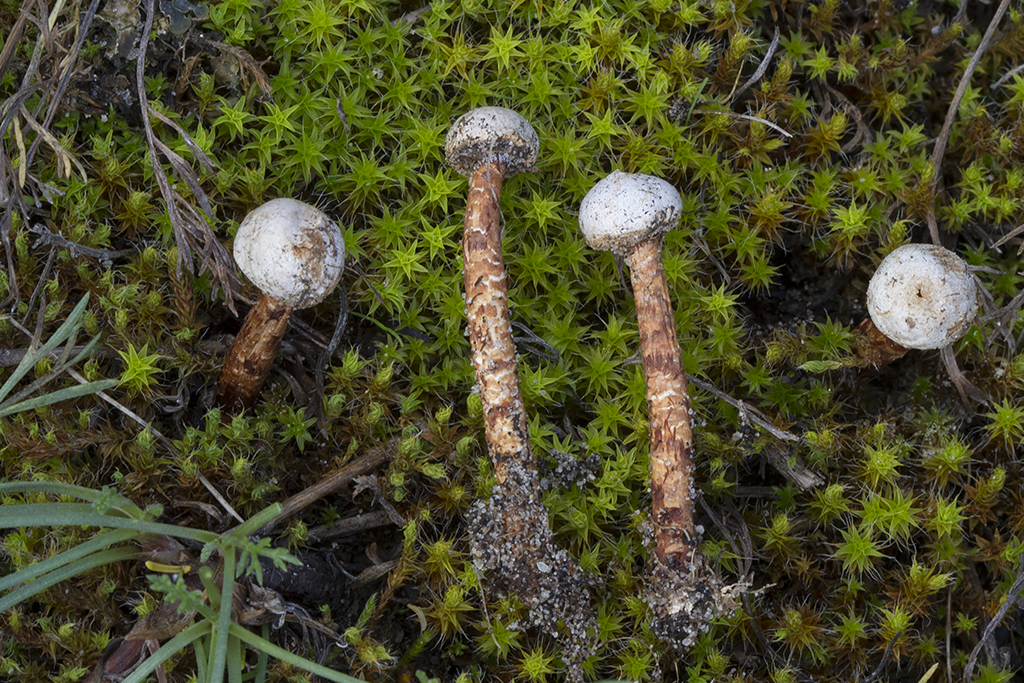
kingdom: Fungi
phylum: Basidiomycota
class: Agaricomycetes
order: Agaricales
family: Agaricaceae
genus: Tulostoma
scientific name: Tulostoma winterhoffii
